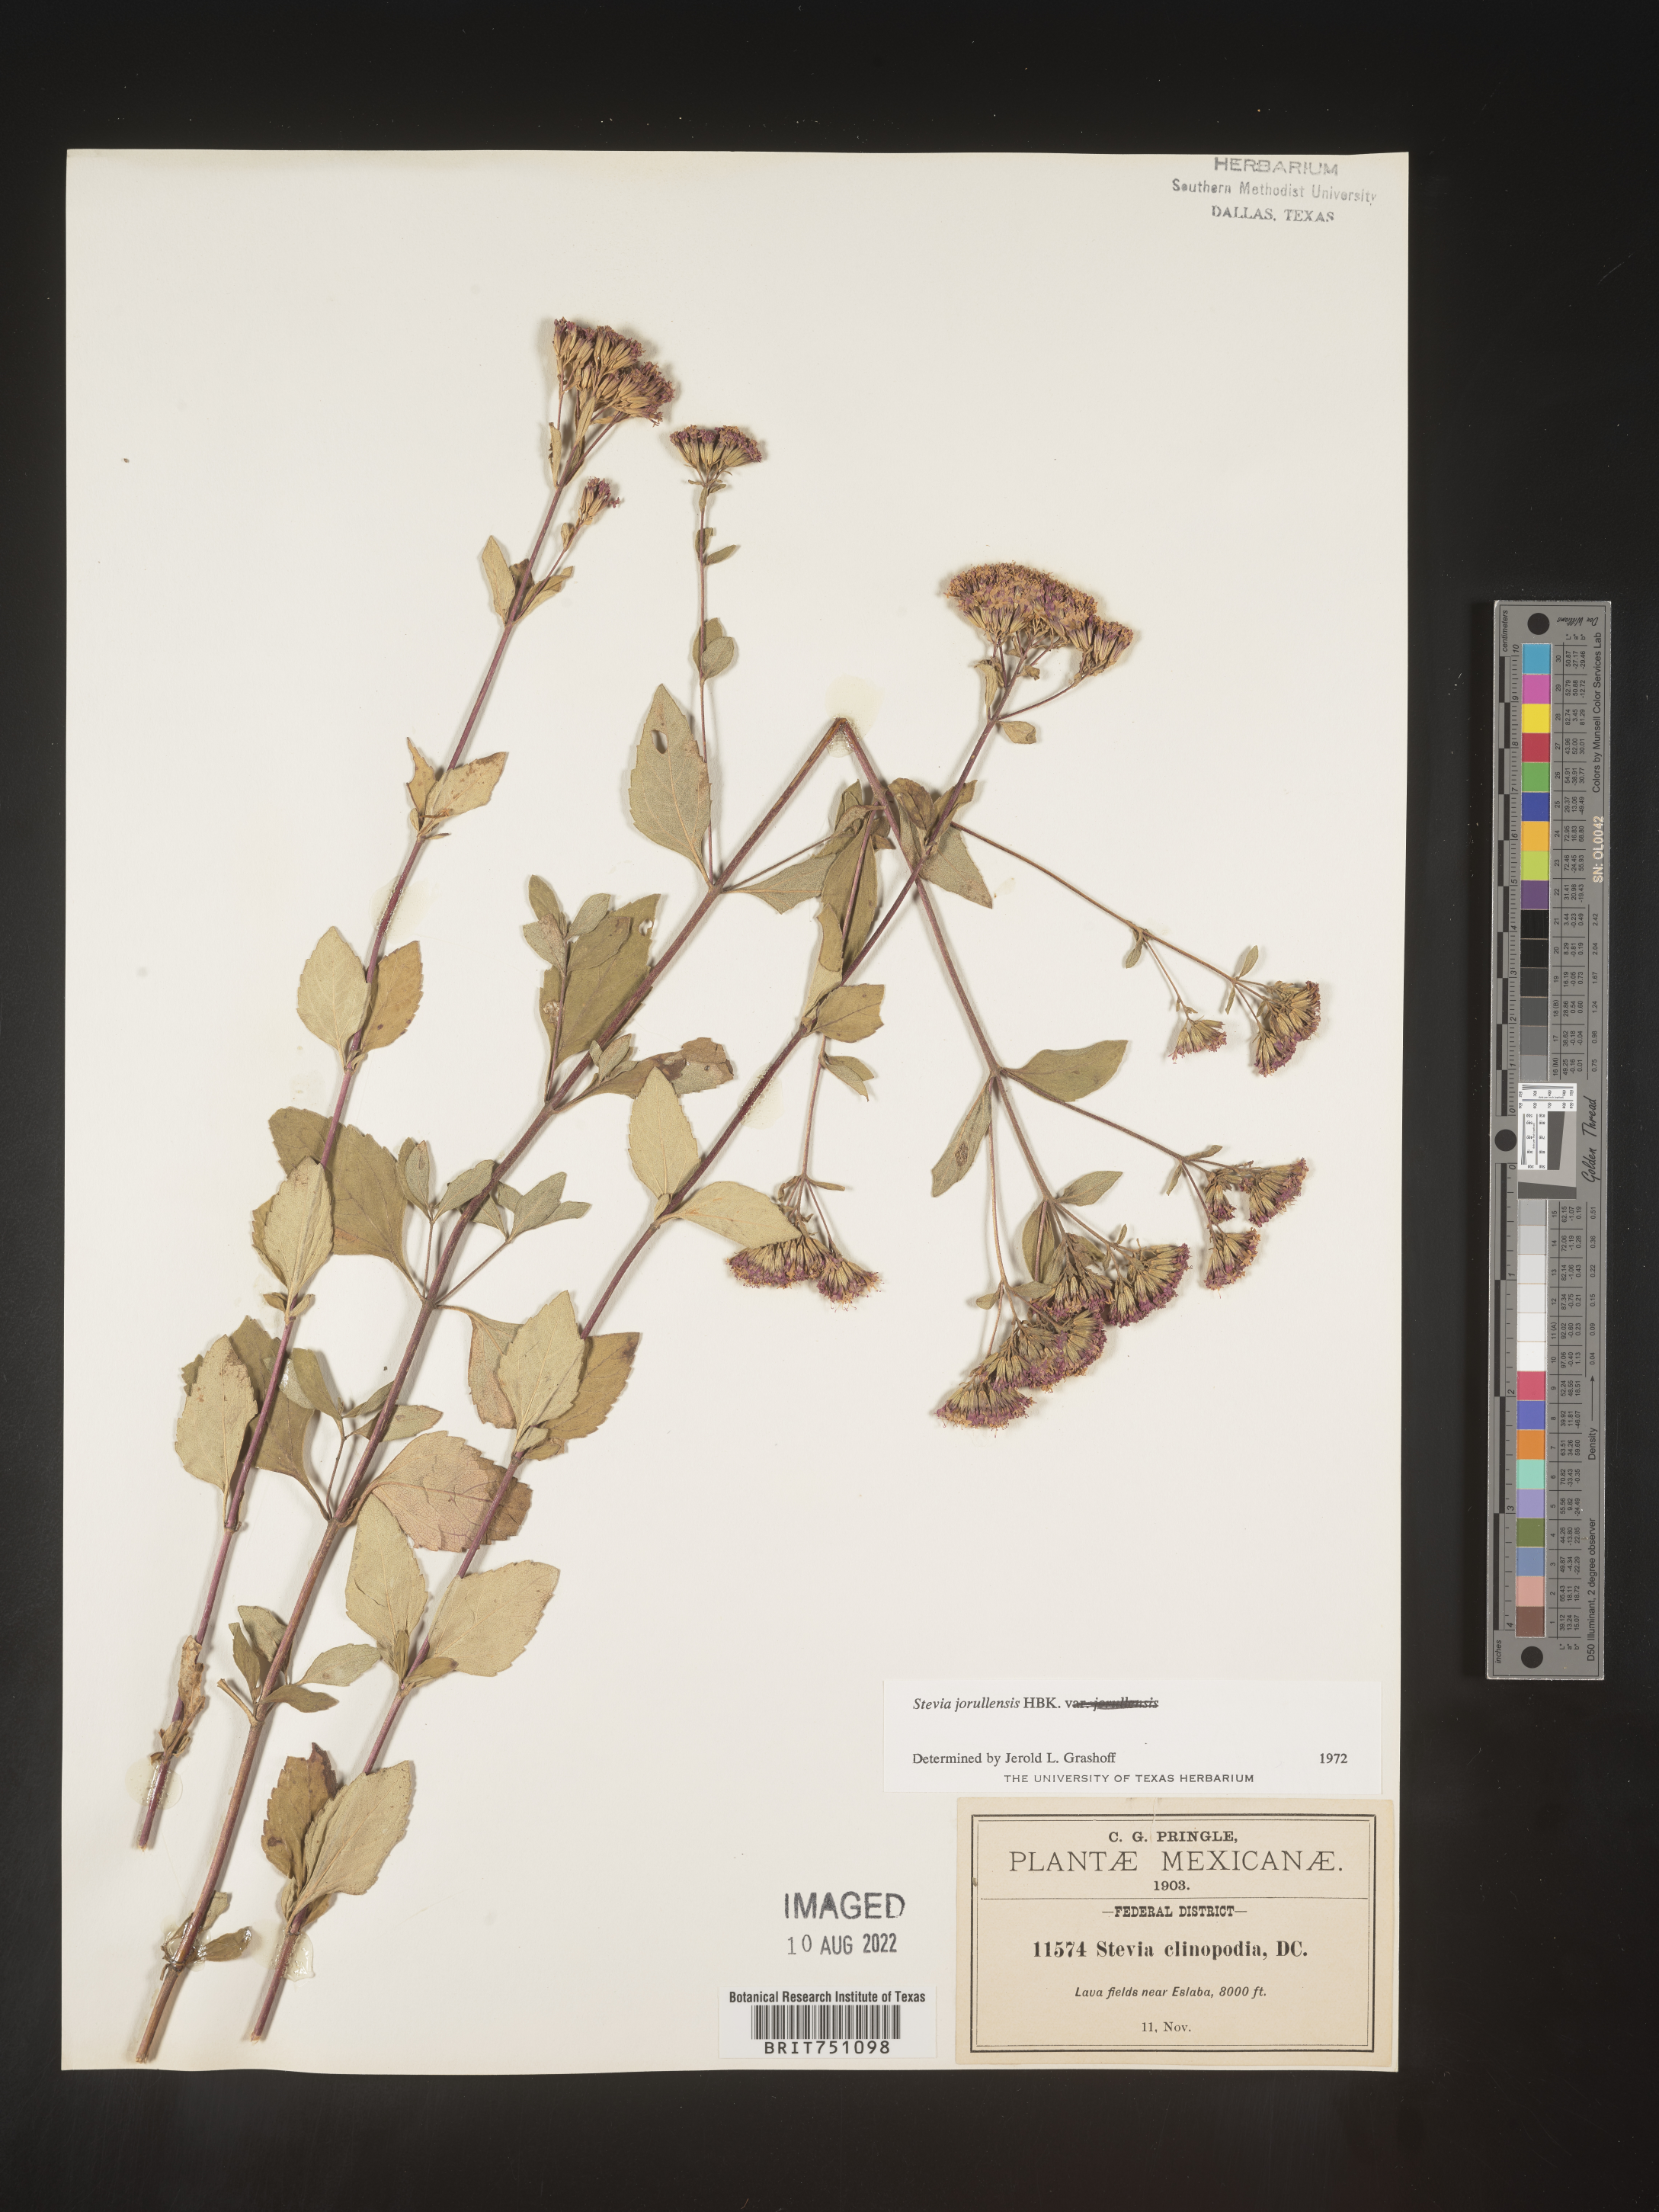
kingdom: Plantae
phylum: Tracheophyta
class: Magnoliopsida
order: Asterales
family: Asteraceae
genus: Stevia
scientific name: Stevia jorullensis
